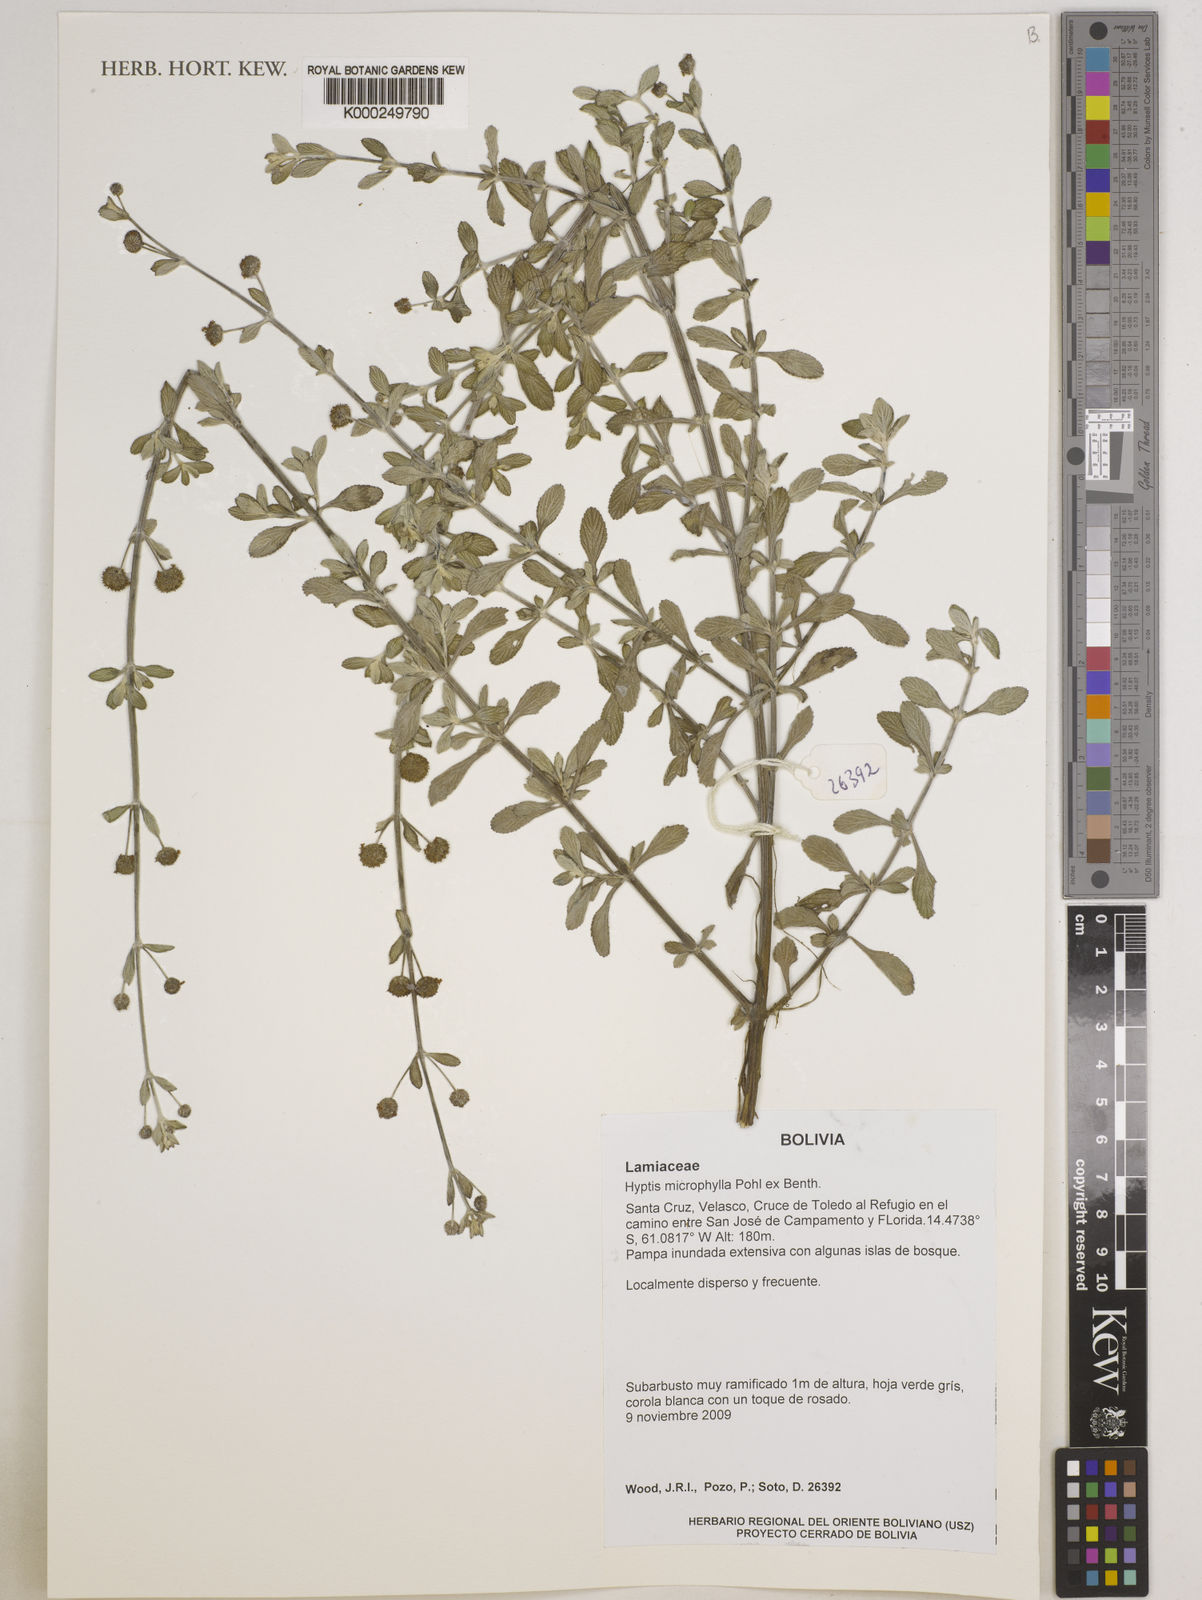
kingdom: Plantae
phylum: Tracheophyta
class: Magnoliopsida
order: Lamiales
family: Lamiaceae
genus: Hyptis
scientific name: Hyptis
